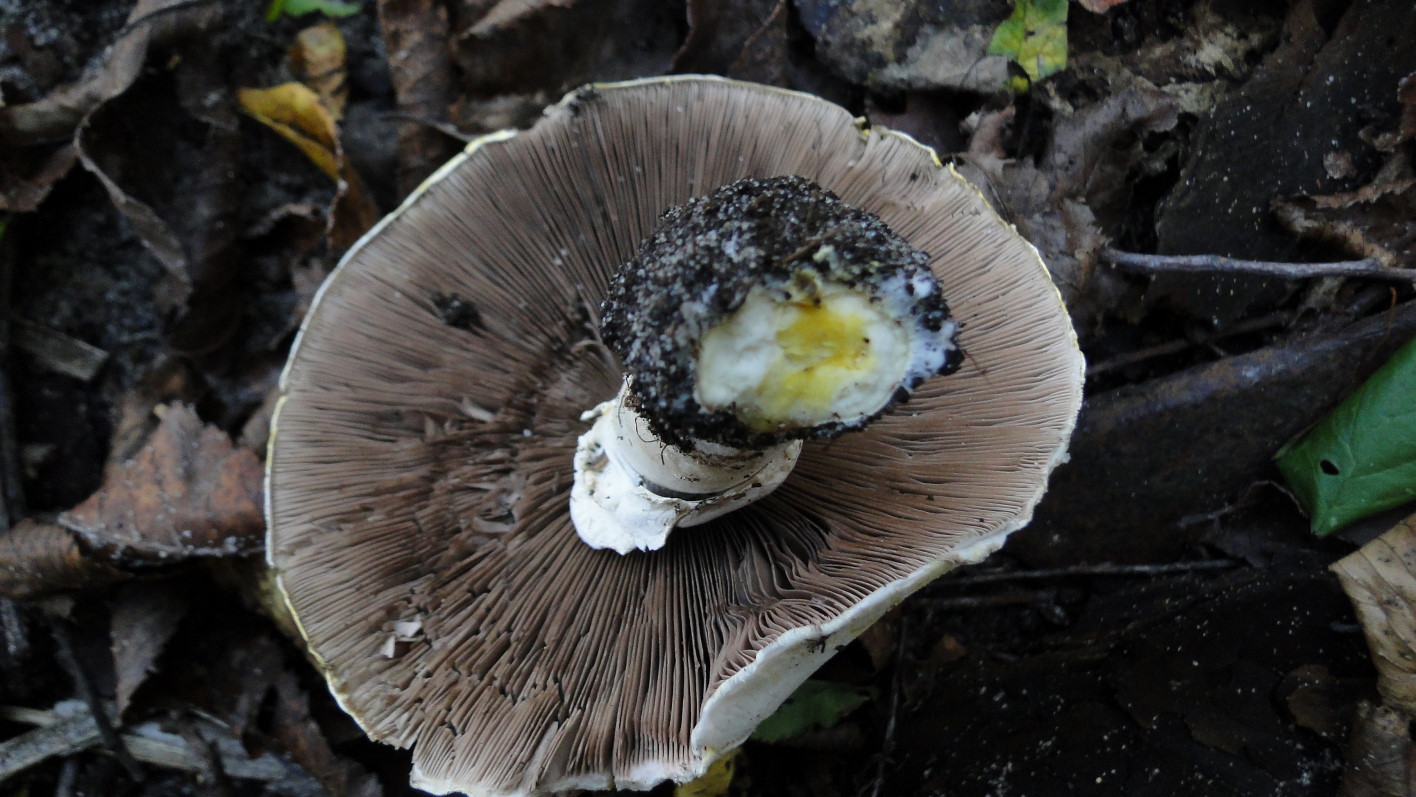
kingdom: Fungi
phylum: Basidiomycota
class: Agaricomycetes
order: Agaricales
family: Agaricaceae
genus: Agaricus
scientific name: Agaricus xanthodermus
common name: karbol-champignon
